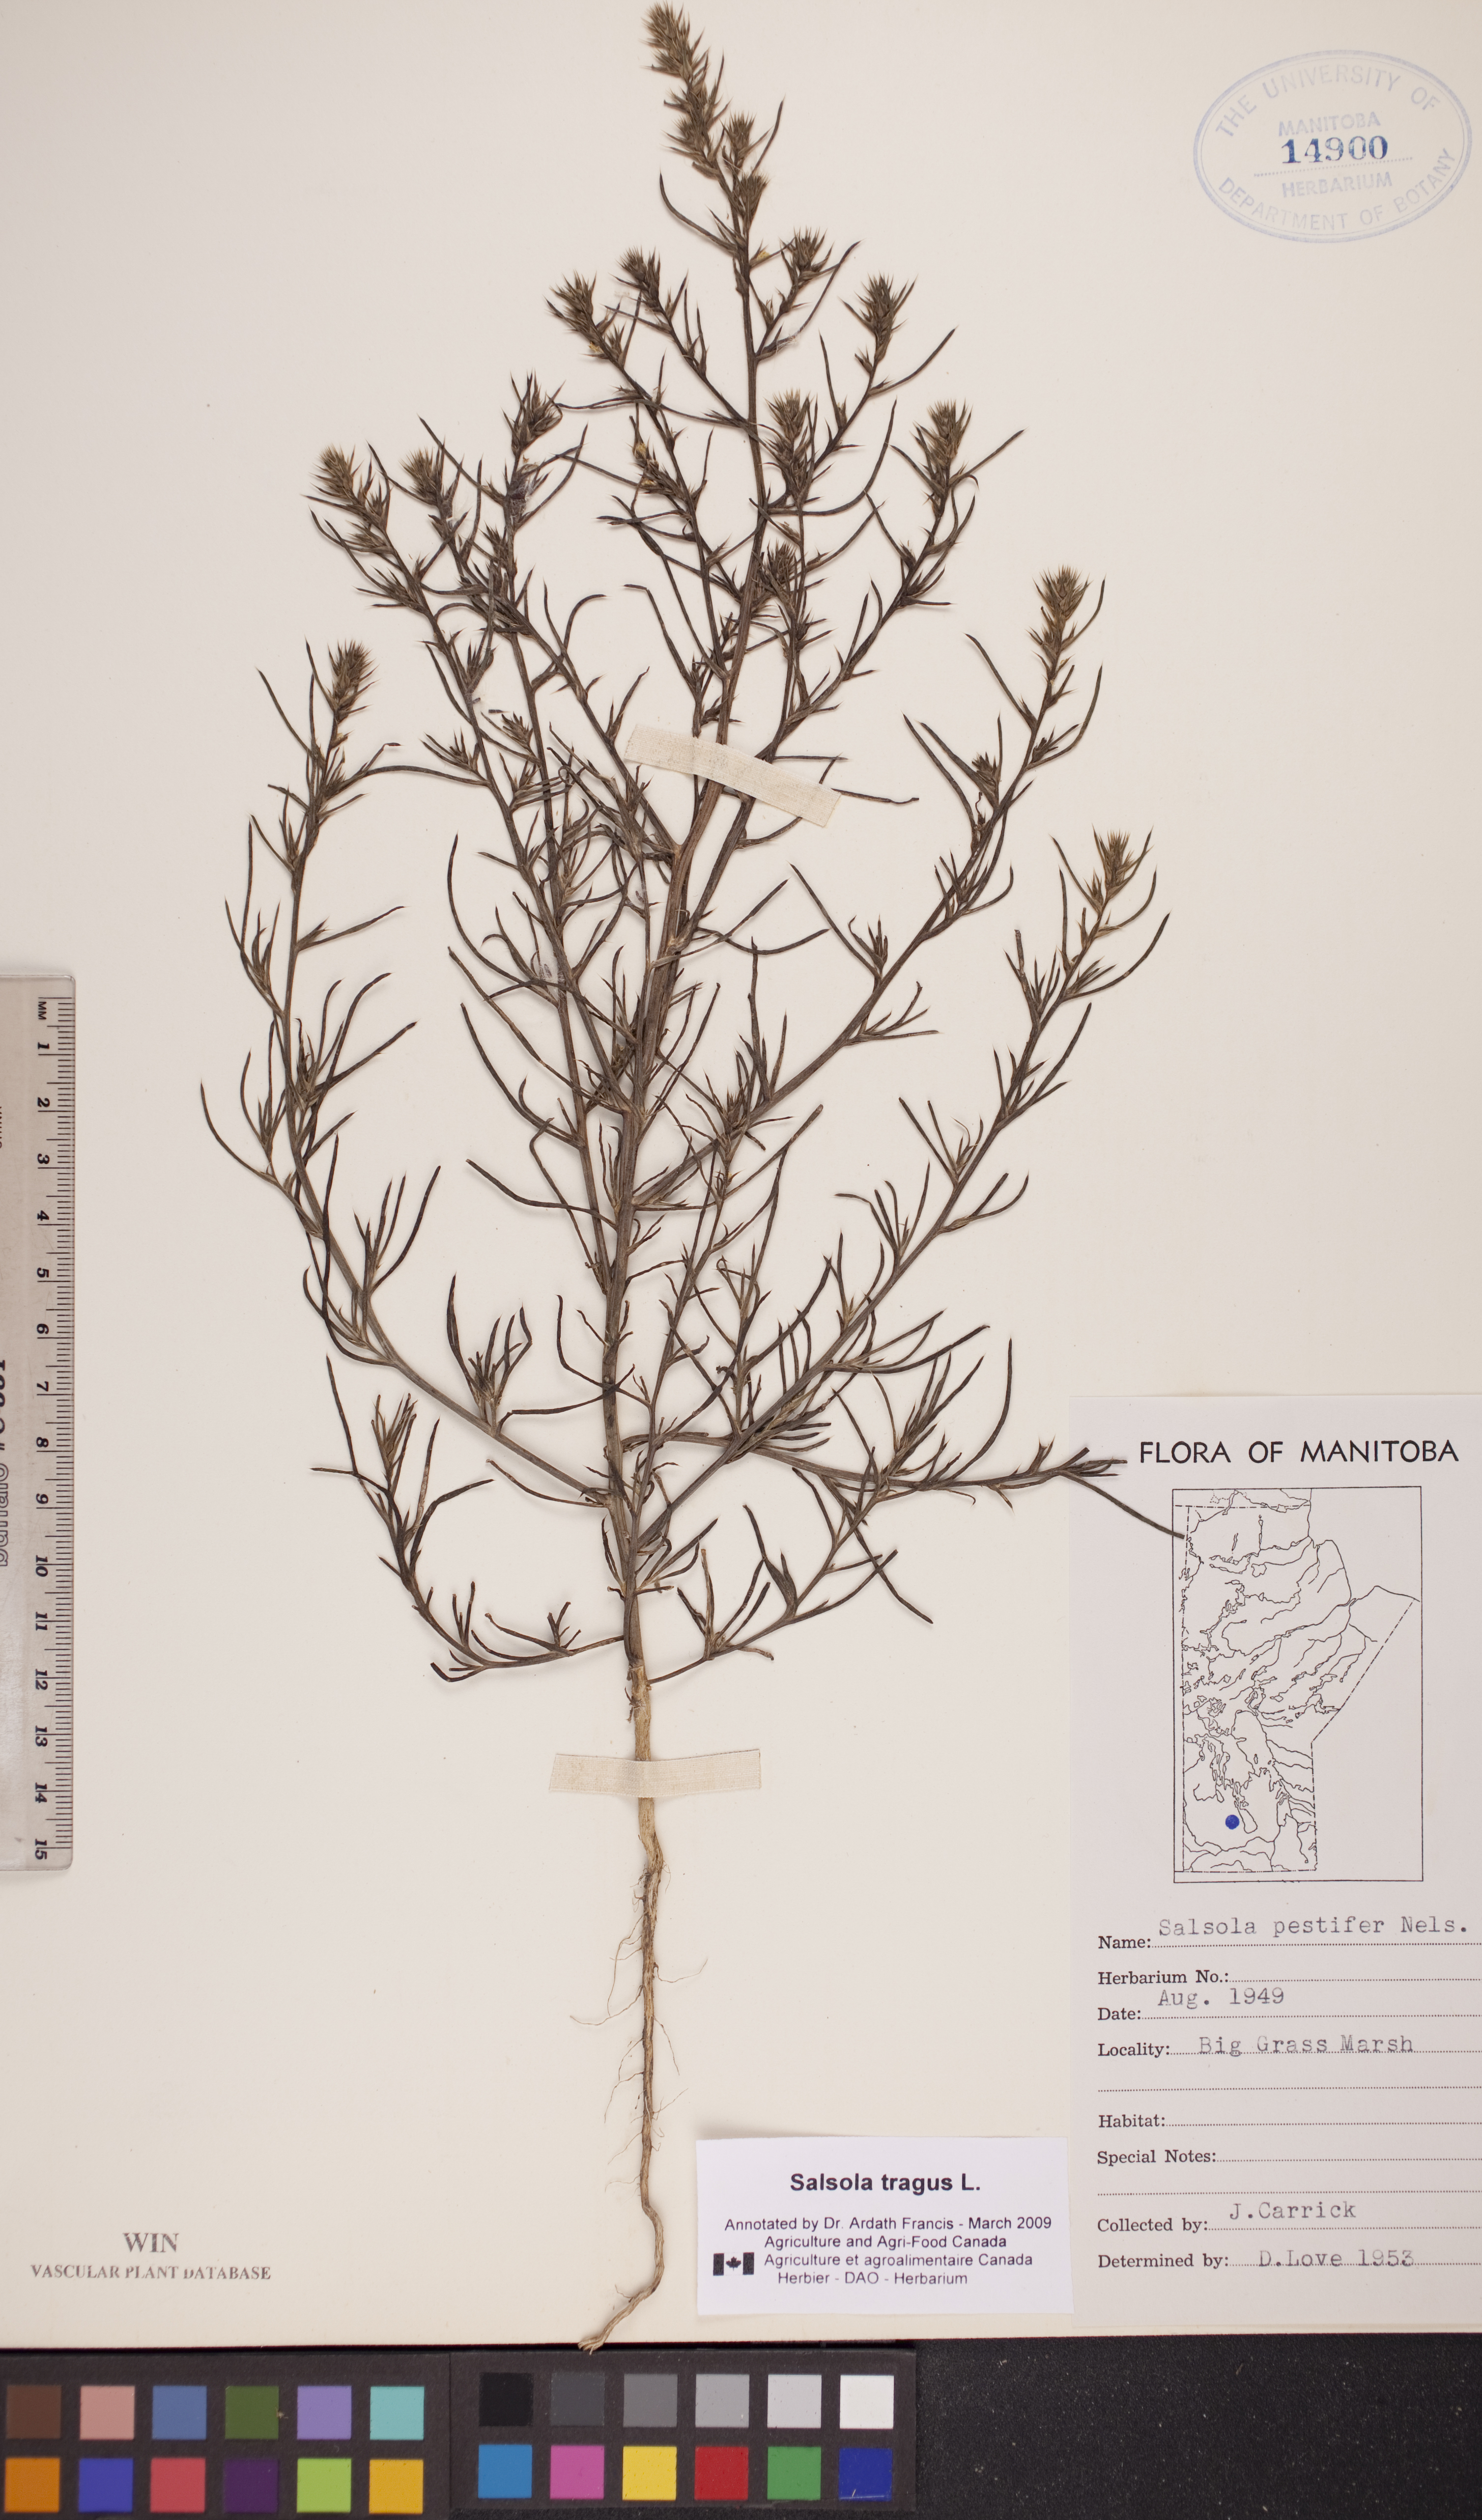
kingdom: Plantae
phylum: Tracheophyta
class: Magnoliopsida
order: Caryophyllales
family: Amaranthaceae
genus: Salsola
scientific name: Salsola tragus
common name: Prickly russian thistle
